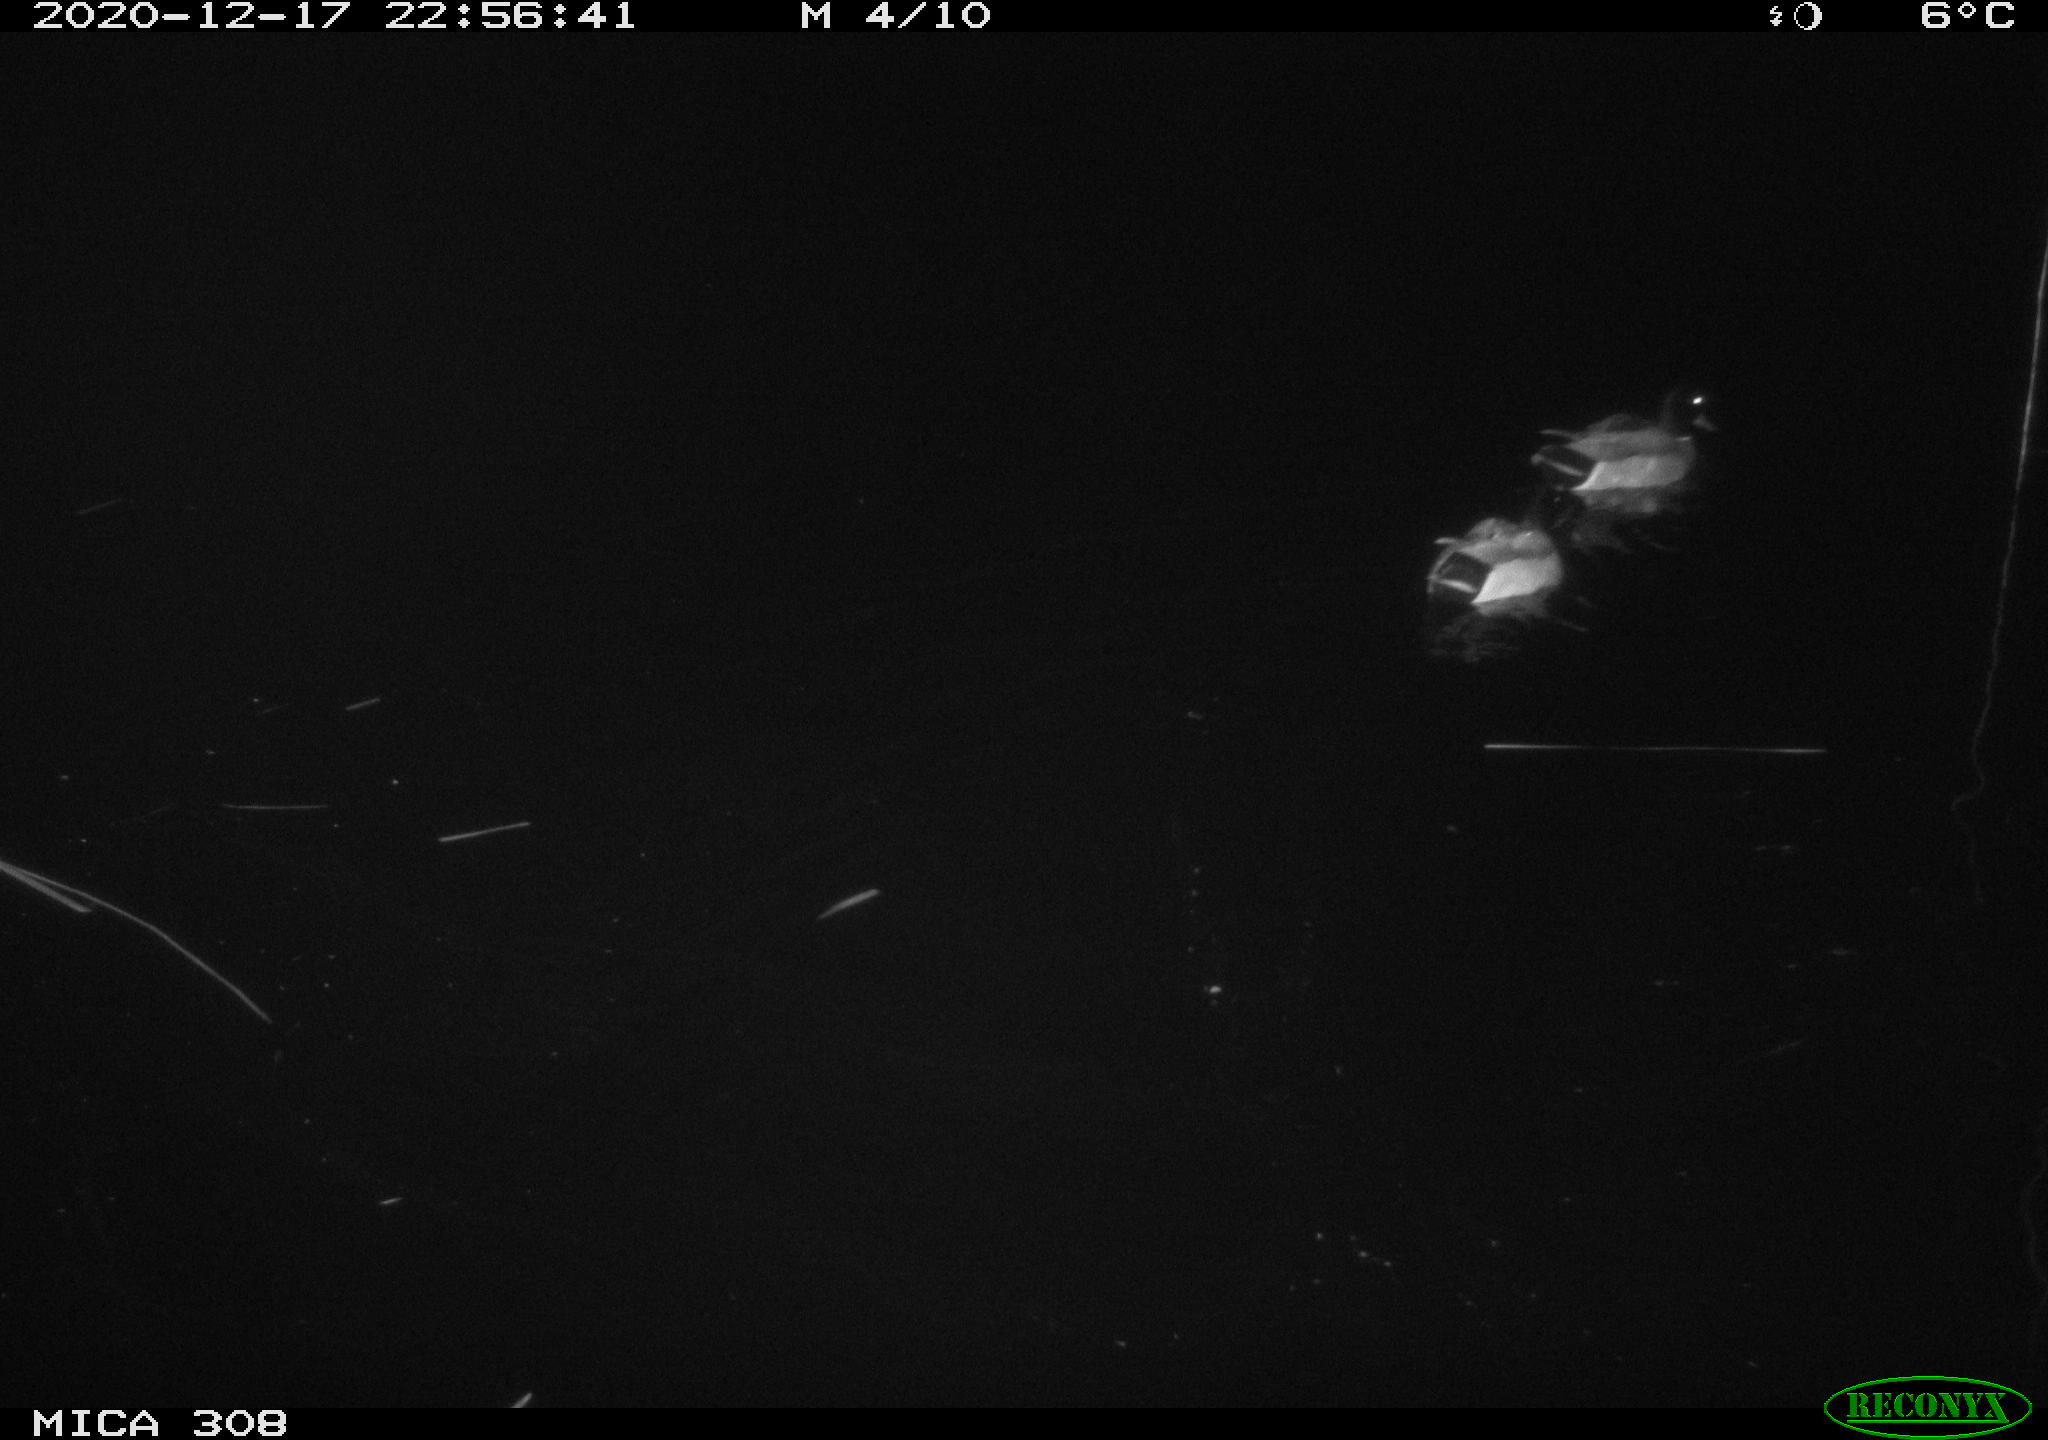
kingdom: Animalia
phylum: Chordata
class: Aves
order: Anseriformes
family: Anatidae
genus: Anas
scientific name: Anas platyrhynchos
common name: Mallard
